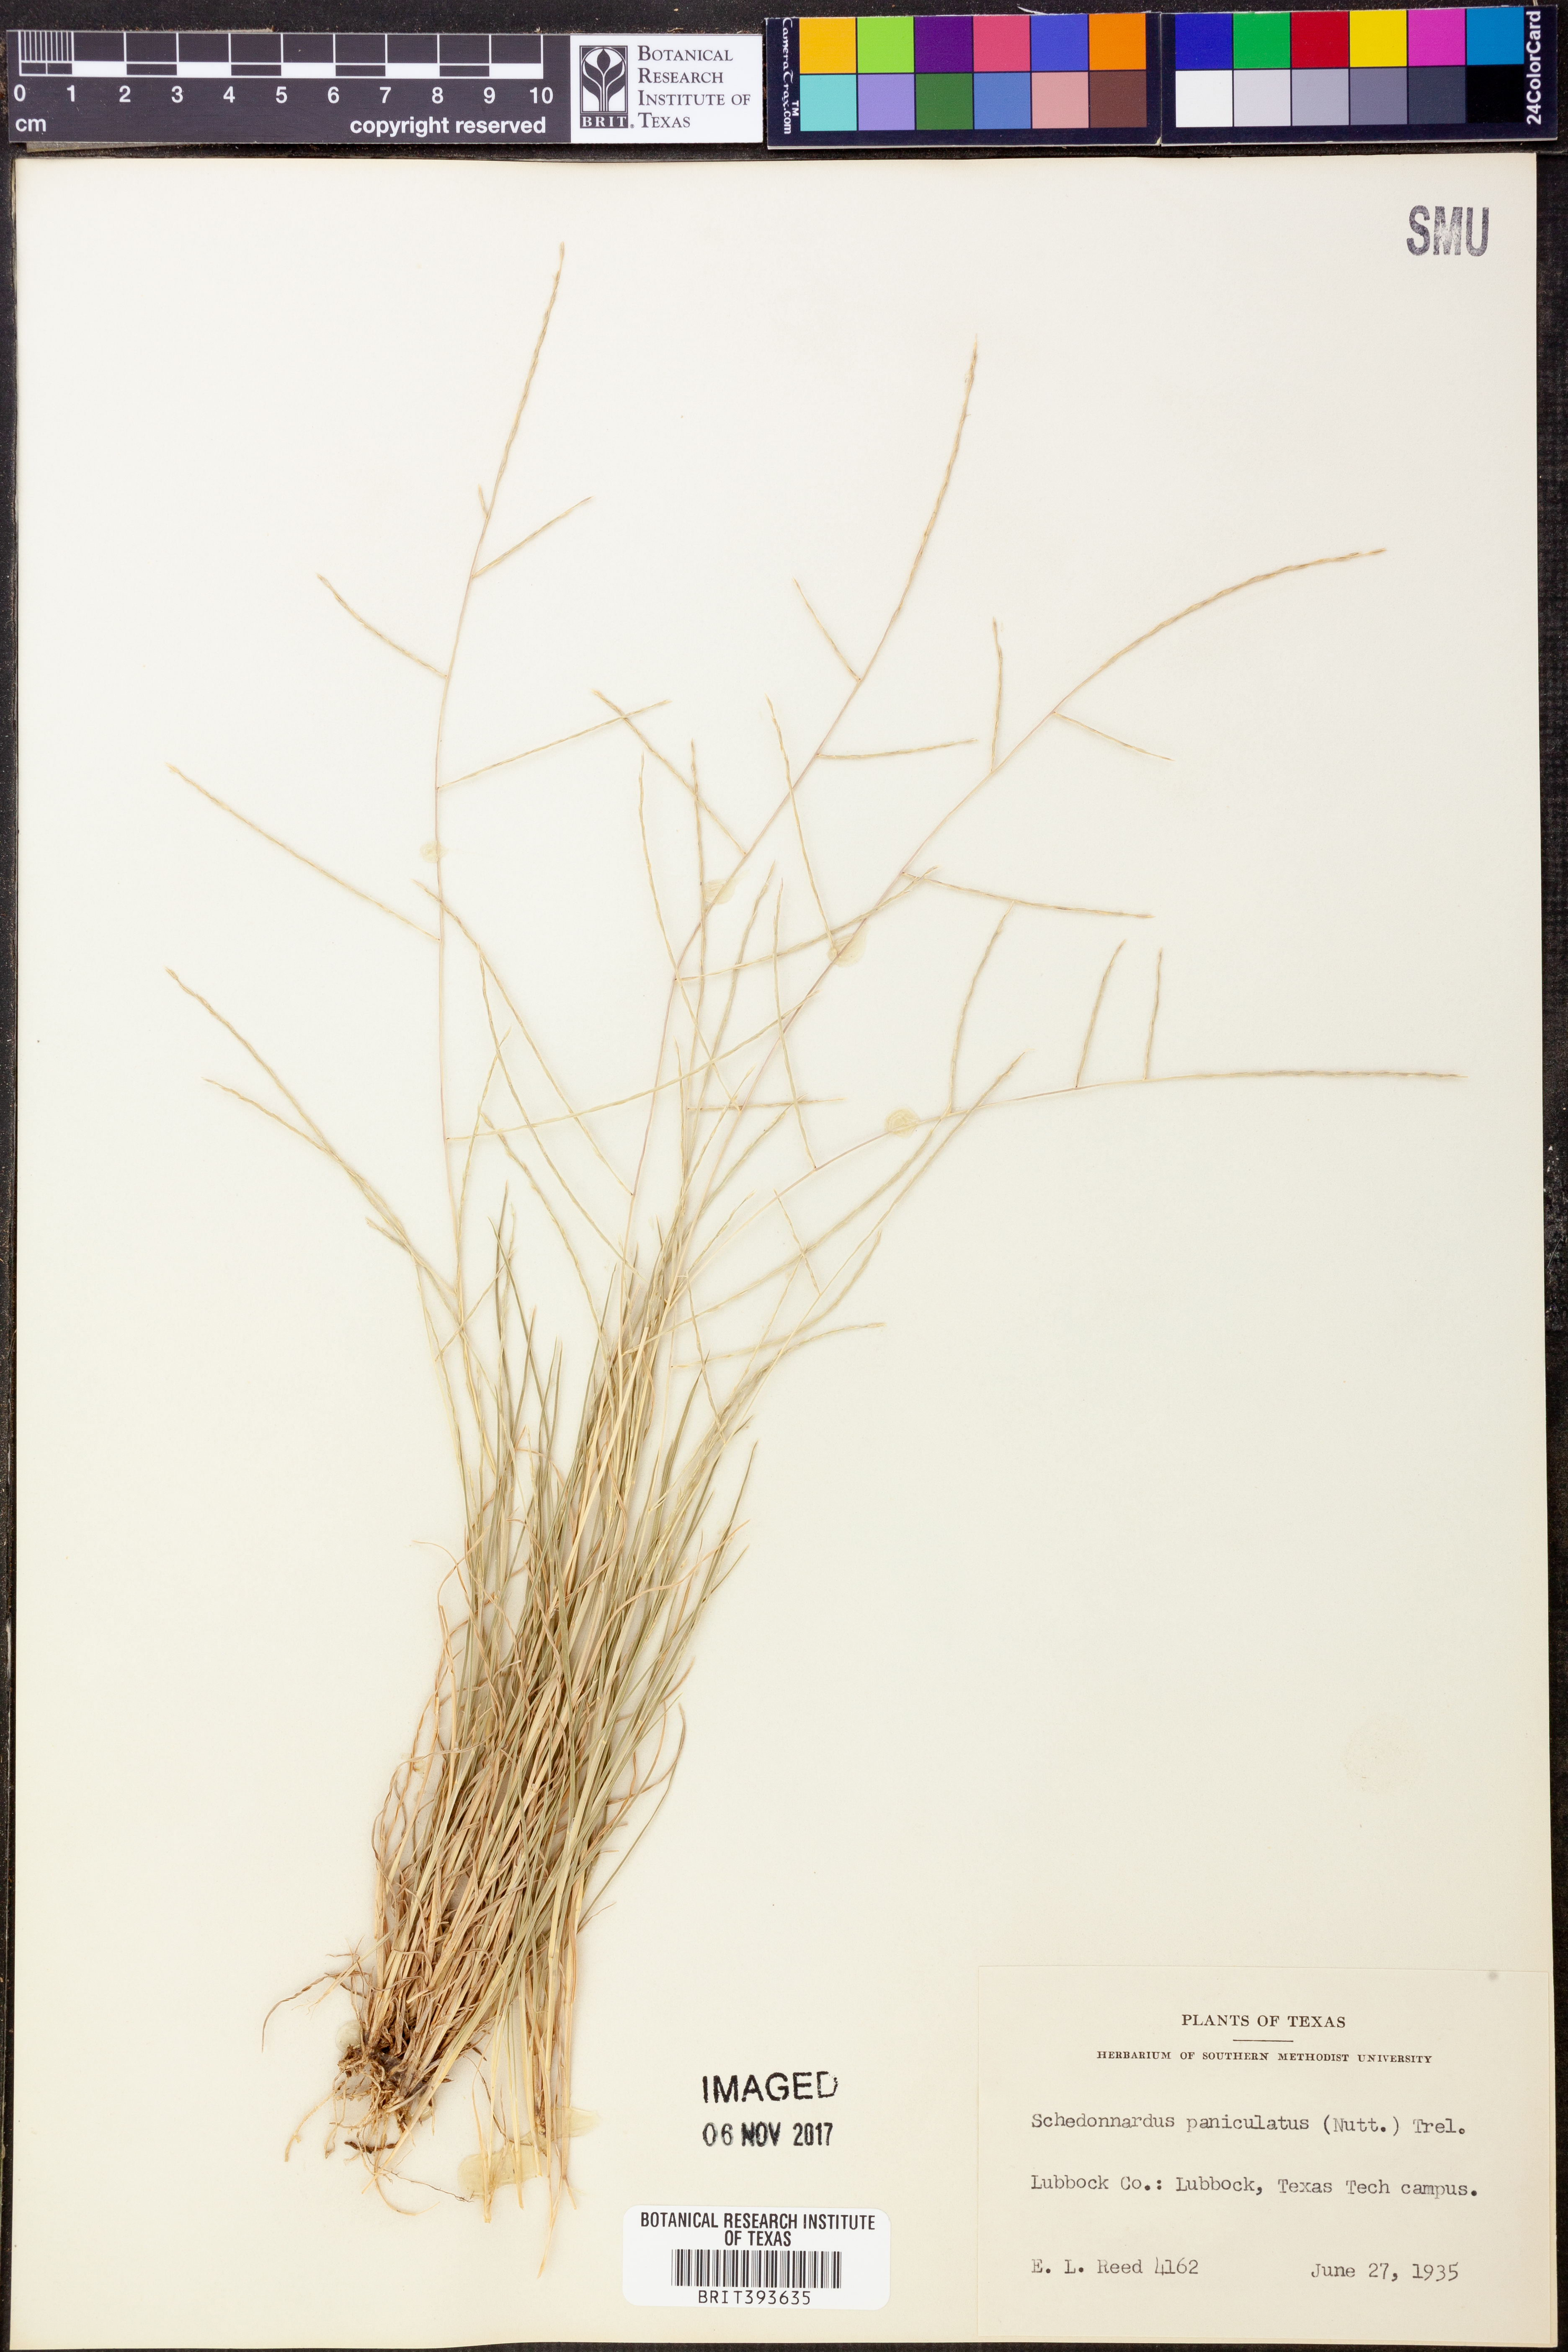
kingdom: Plantae
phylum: Tracheophyta
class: Liliopsida
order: Poales
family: Poaceae
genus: Muhlenbergia
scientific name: Muhlenbergia paniculata
